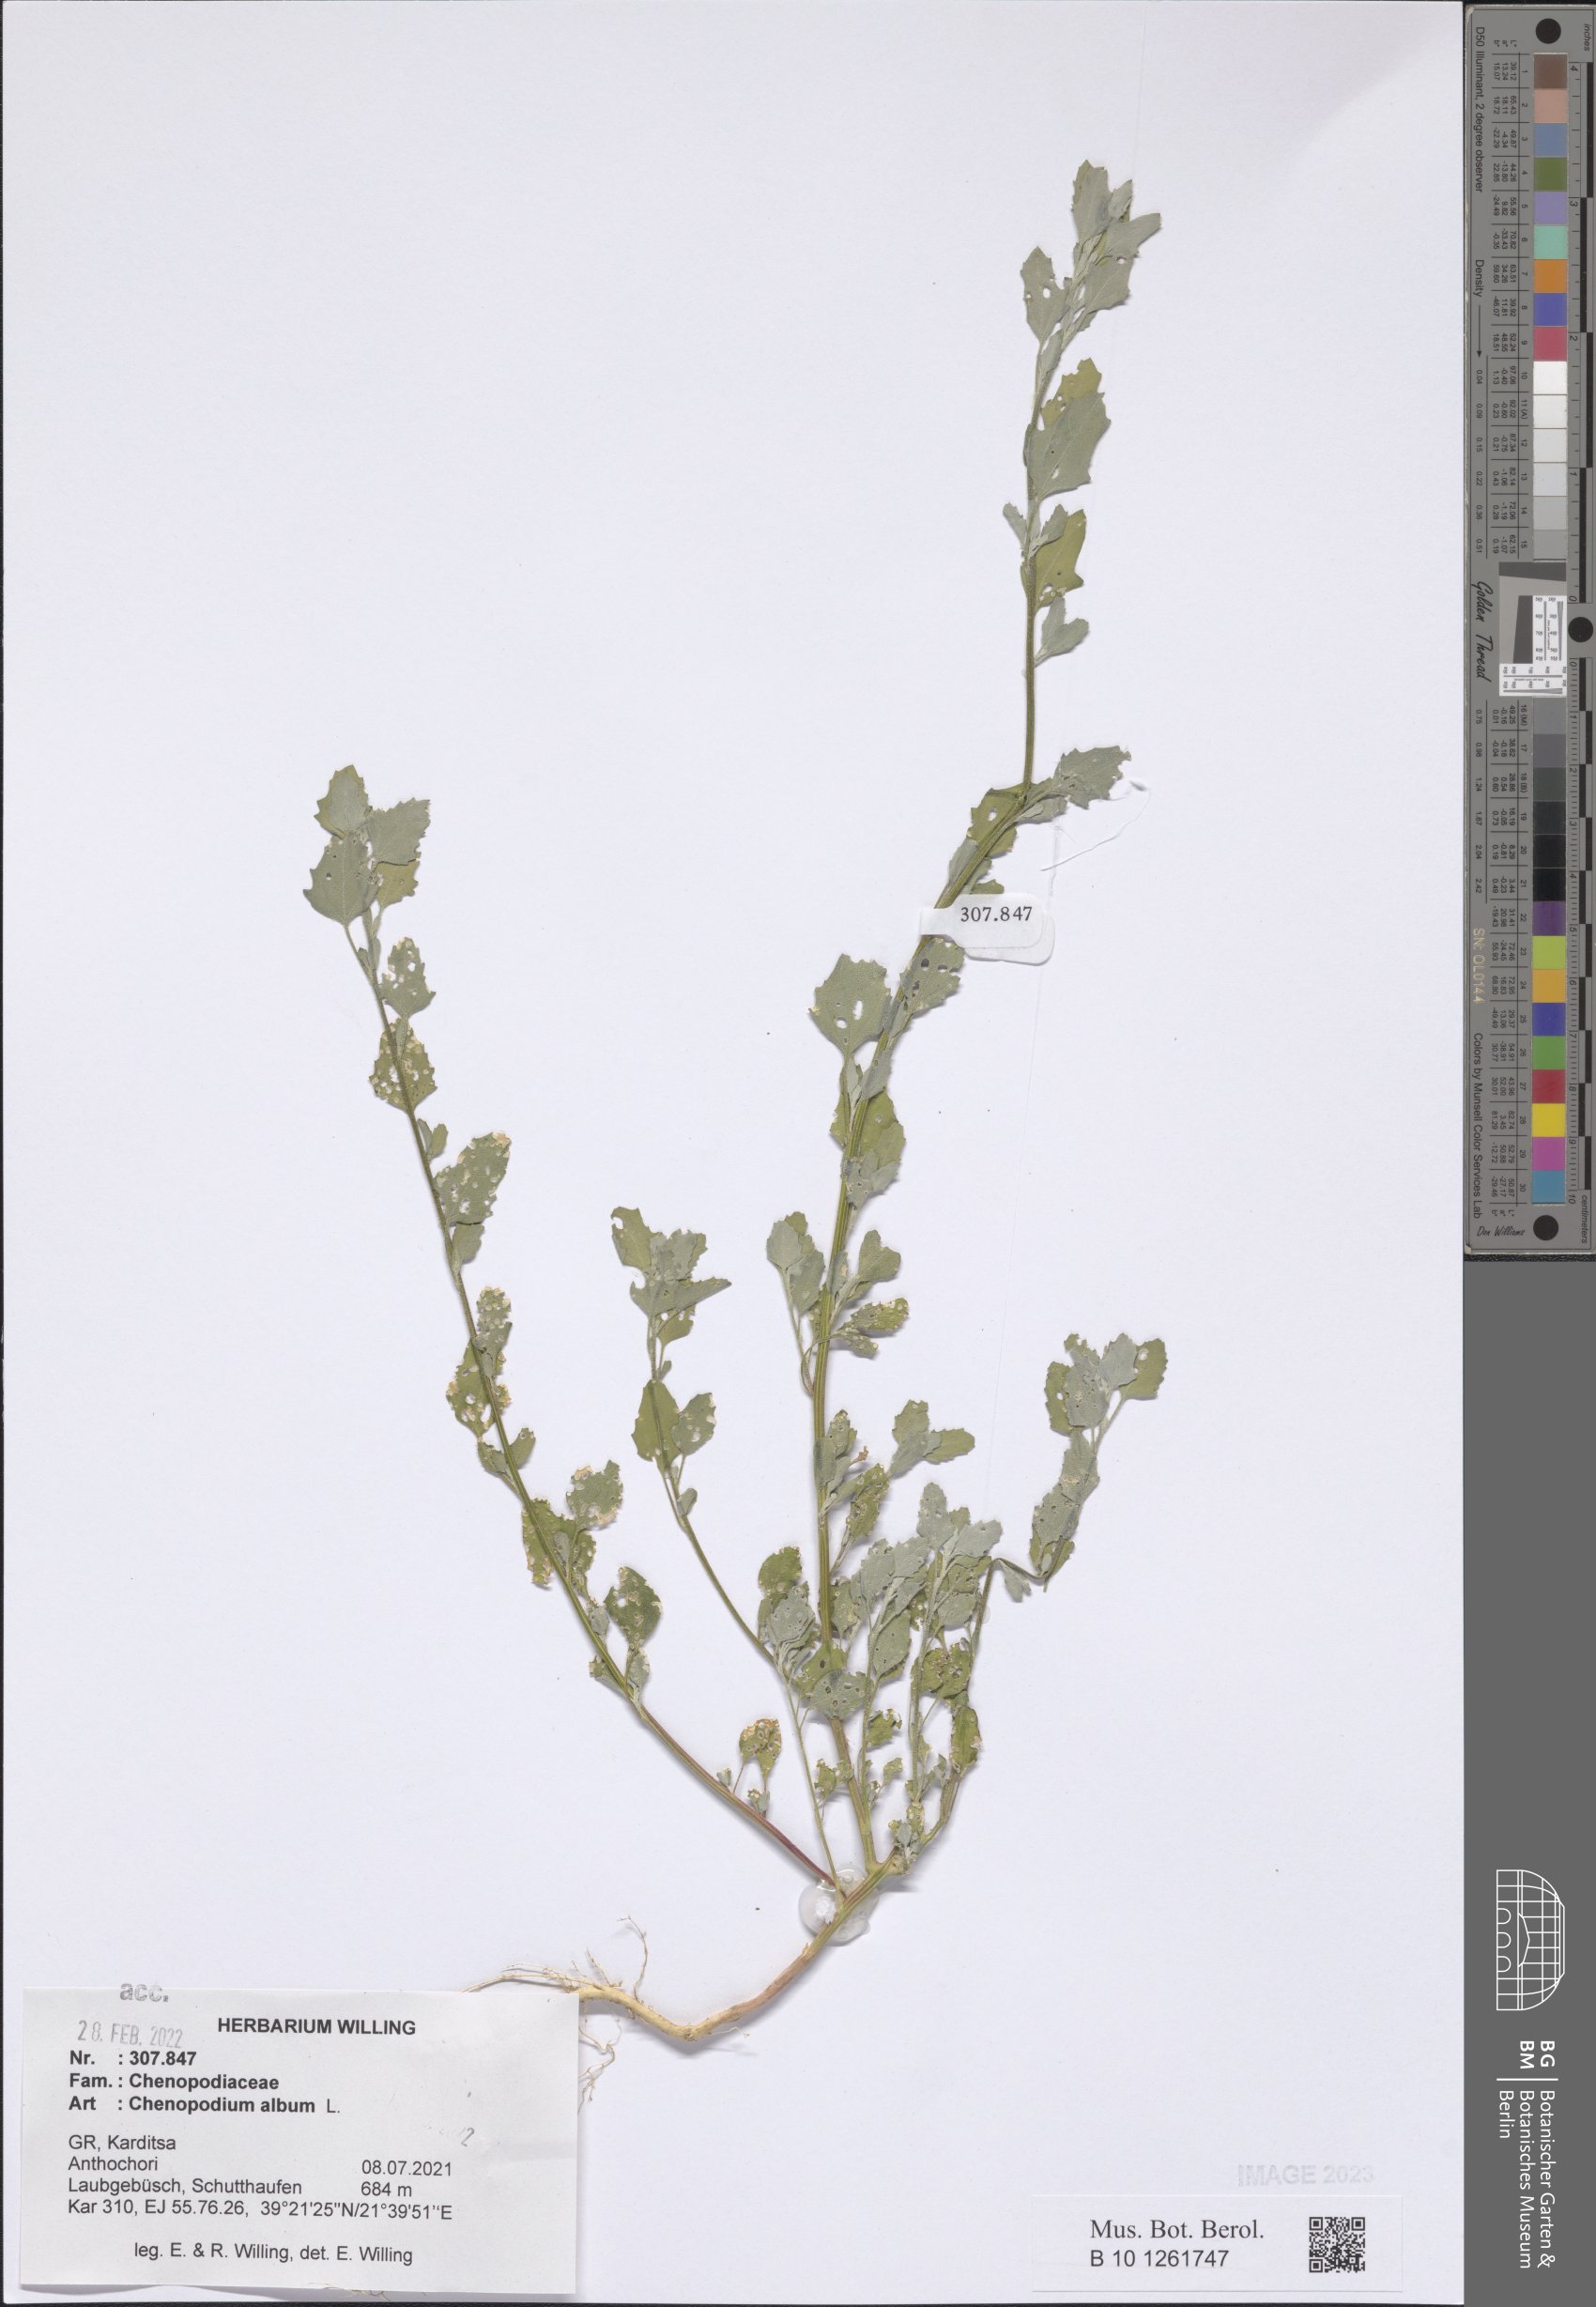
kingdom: Plantae
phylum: Tracheophyta
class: Magnoliopsida
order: Caryophyllales
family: Amaranthaceae
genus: Chenopodium
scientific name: Chenopodium album
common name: Fat-hen
